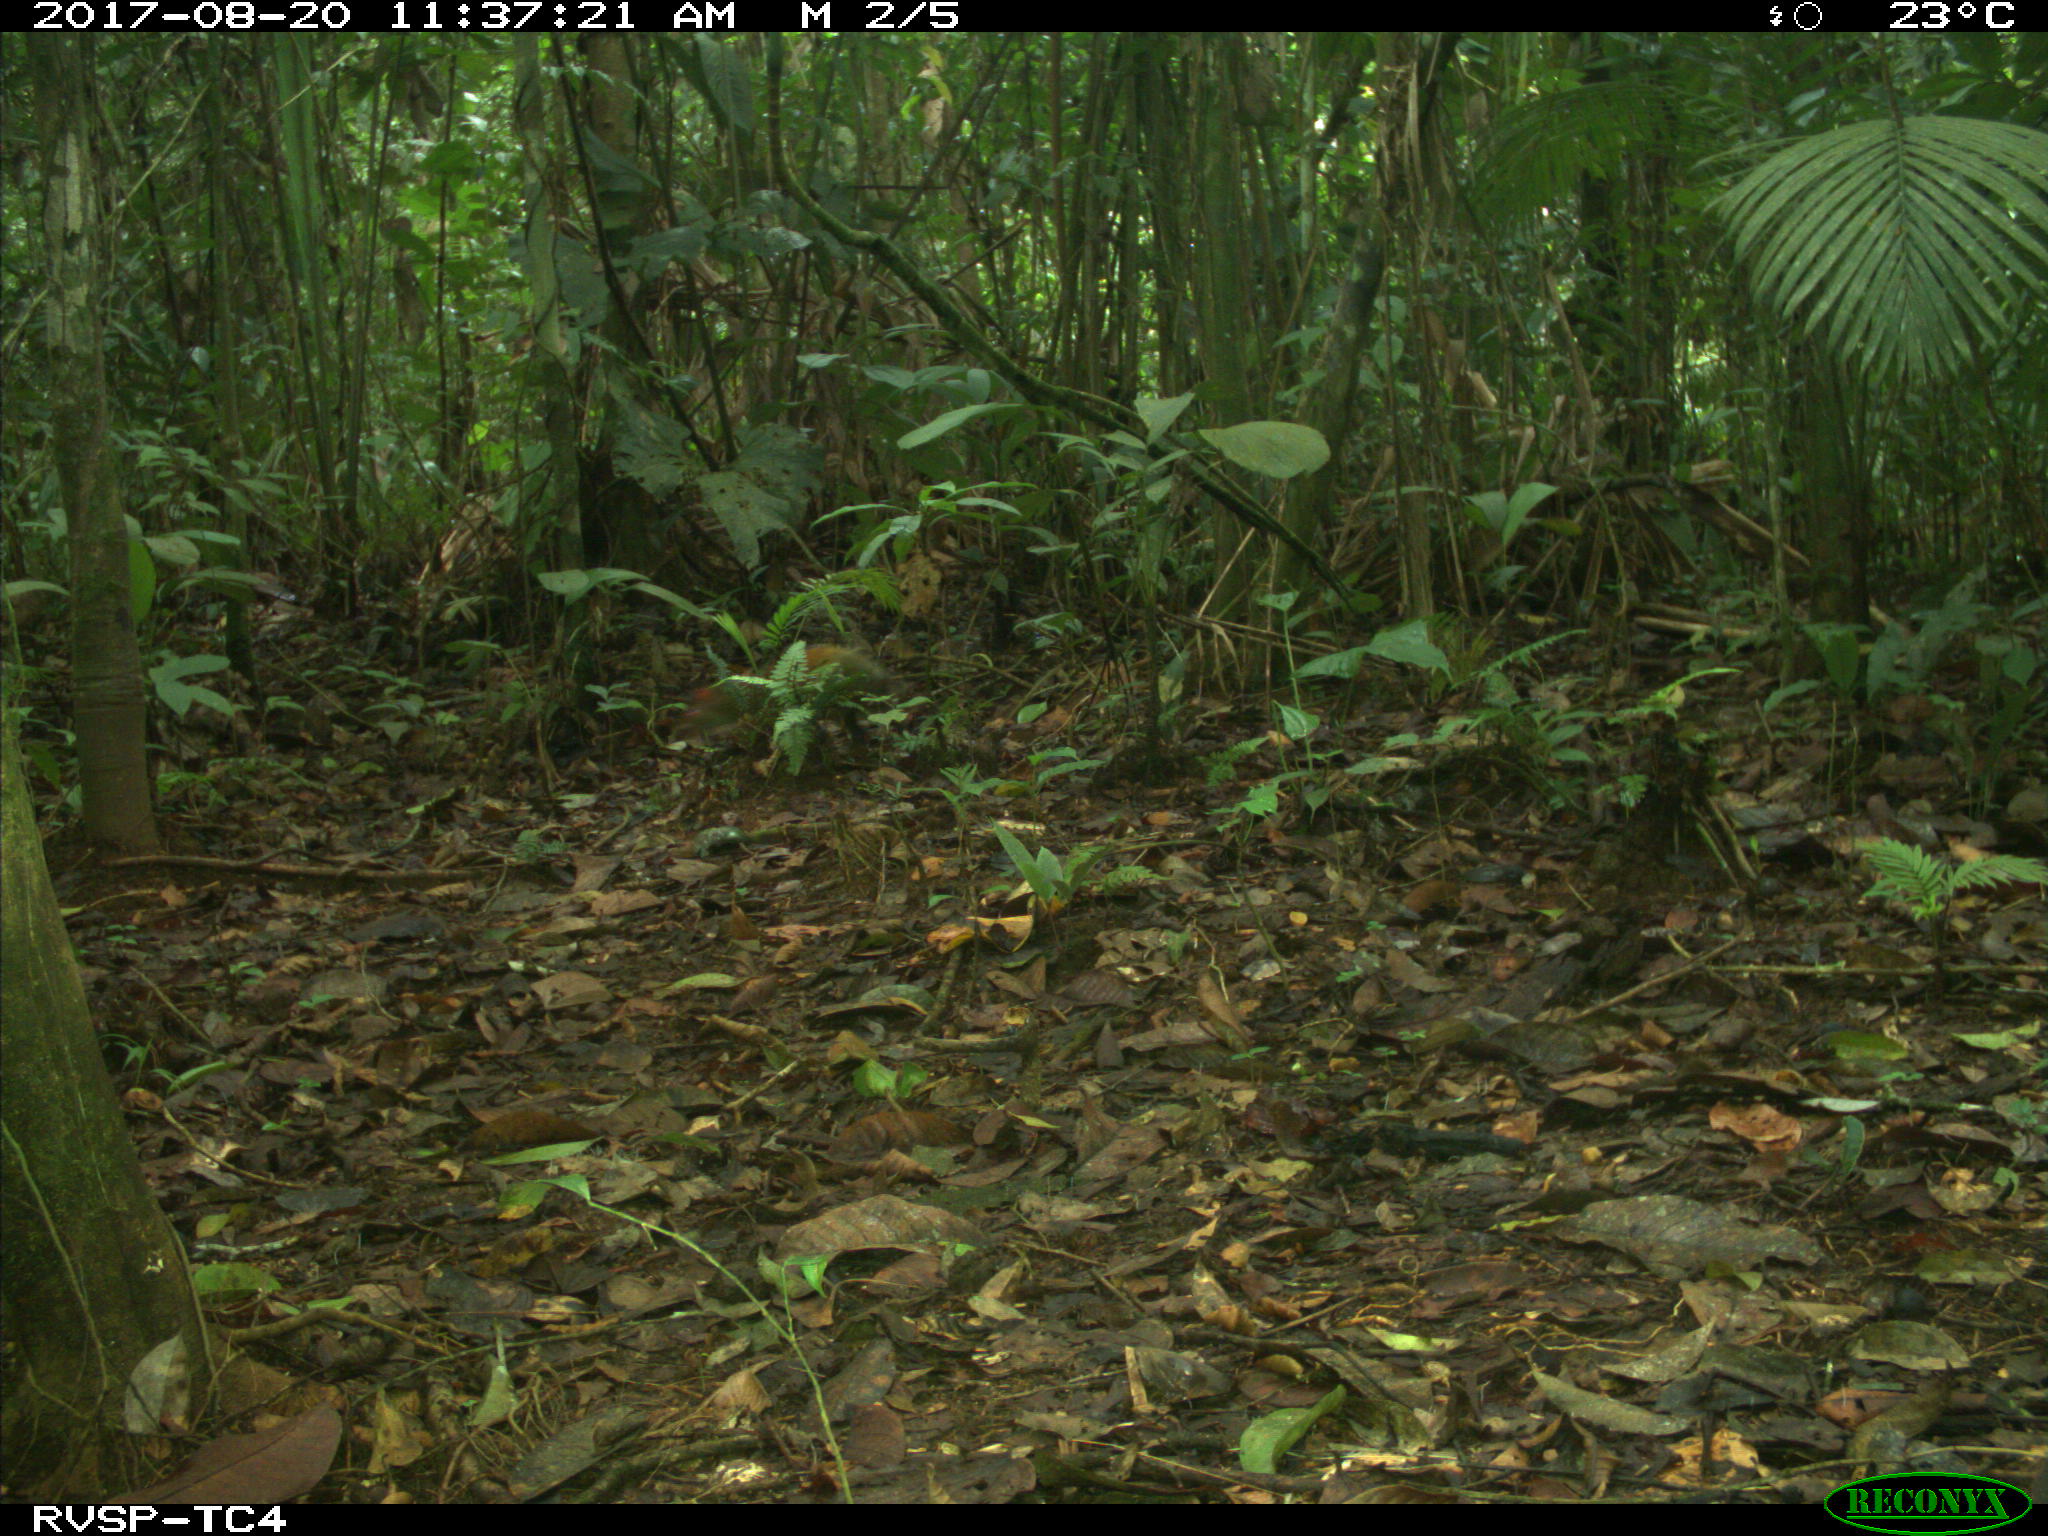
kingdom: Animalia
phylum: Chordata
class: Mammalia
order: Rodentia
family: Dasyproctidae
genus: Dasyprocta
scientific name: Dasyprocta punctata
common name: Central american agouti
